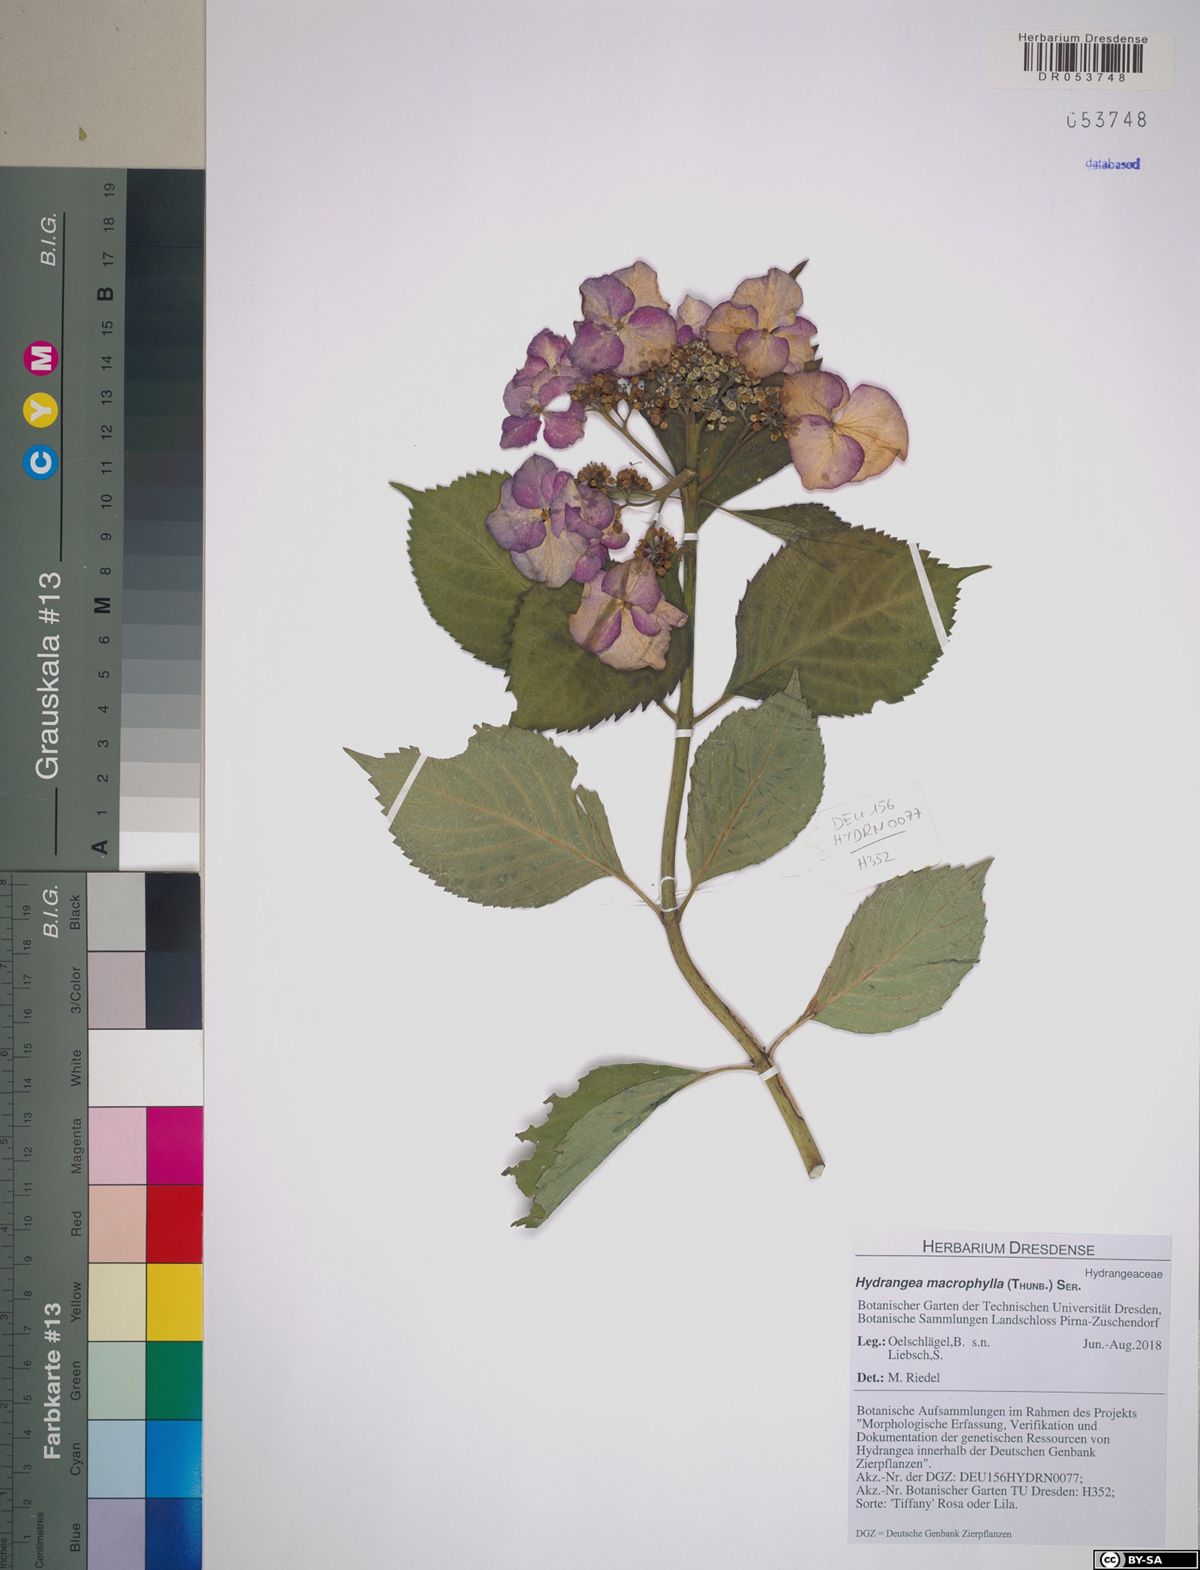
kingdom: Plantae
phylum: Tracheophyta
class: Magnoliopsida
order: Cornales
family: Hydrangeaceae
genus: Hydrangea
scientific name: Hydrangea macrophylla
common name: Hydrangea
